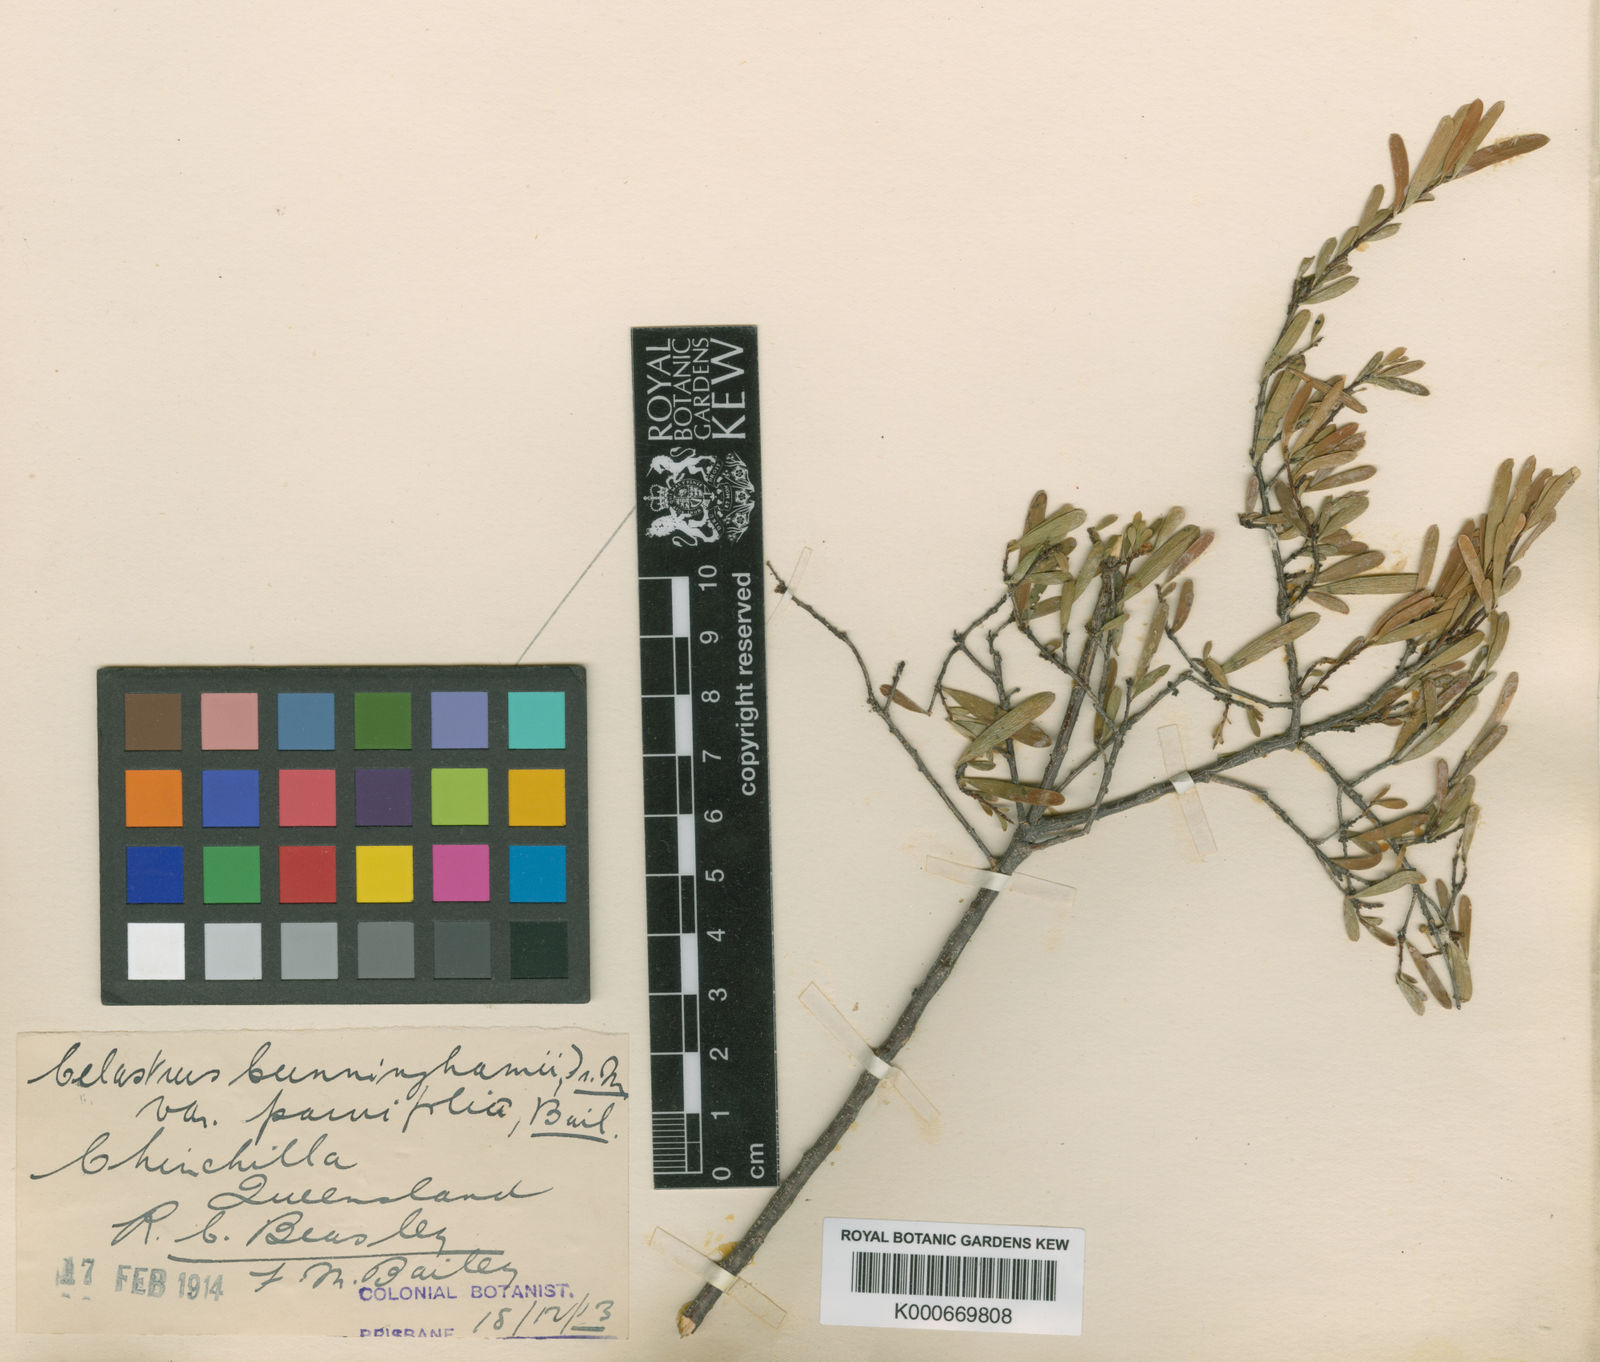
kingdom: Plantae
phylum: Tracheophyta
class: Magnoliopsida
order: Celastrales
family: Celastraceae
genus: Denhamia
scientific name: Denhamia cunninghamii
